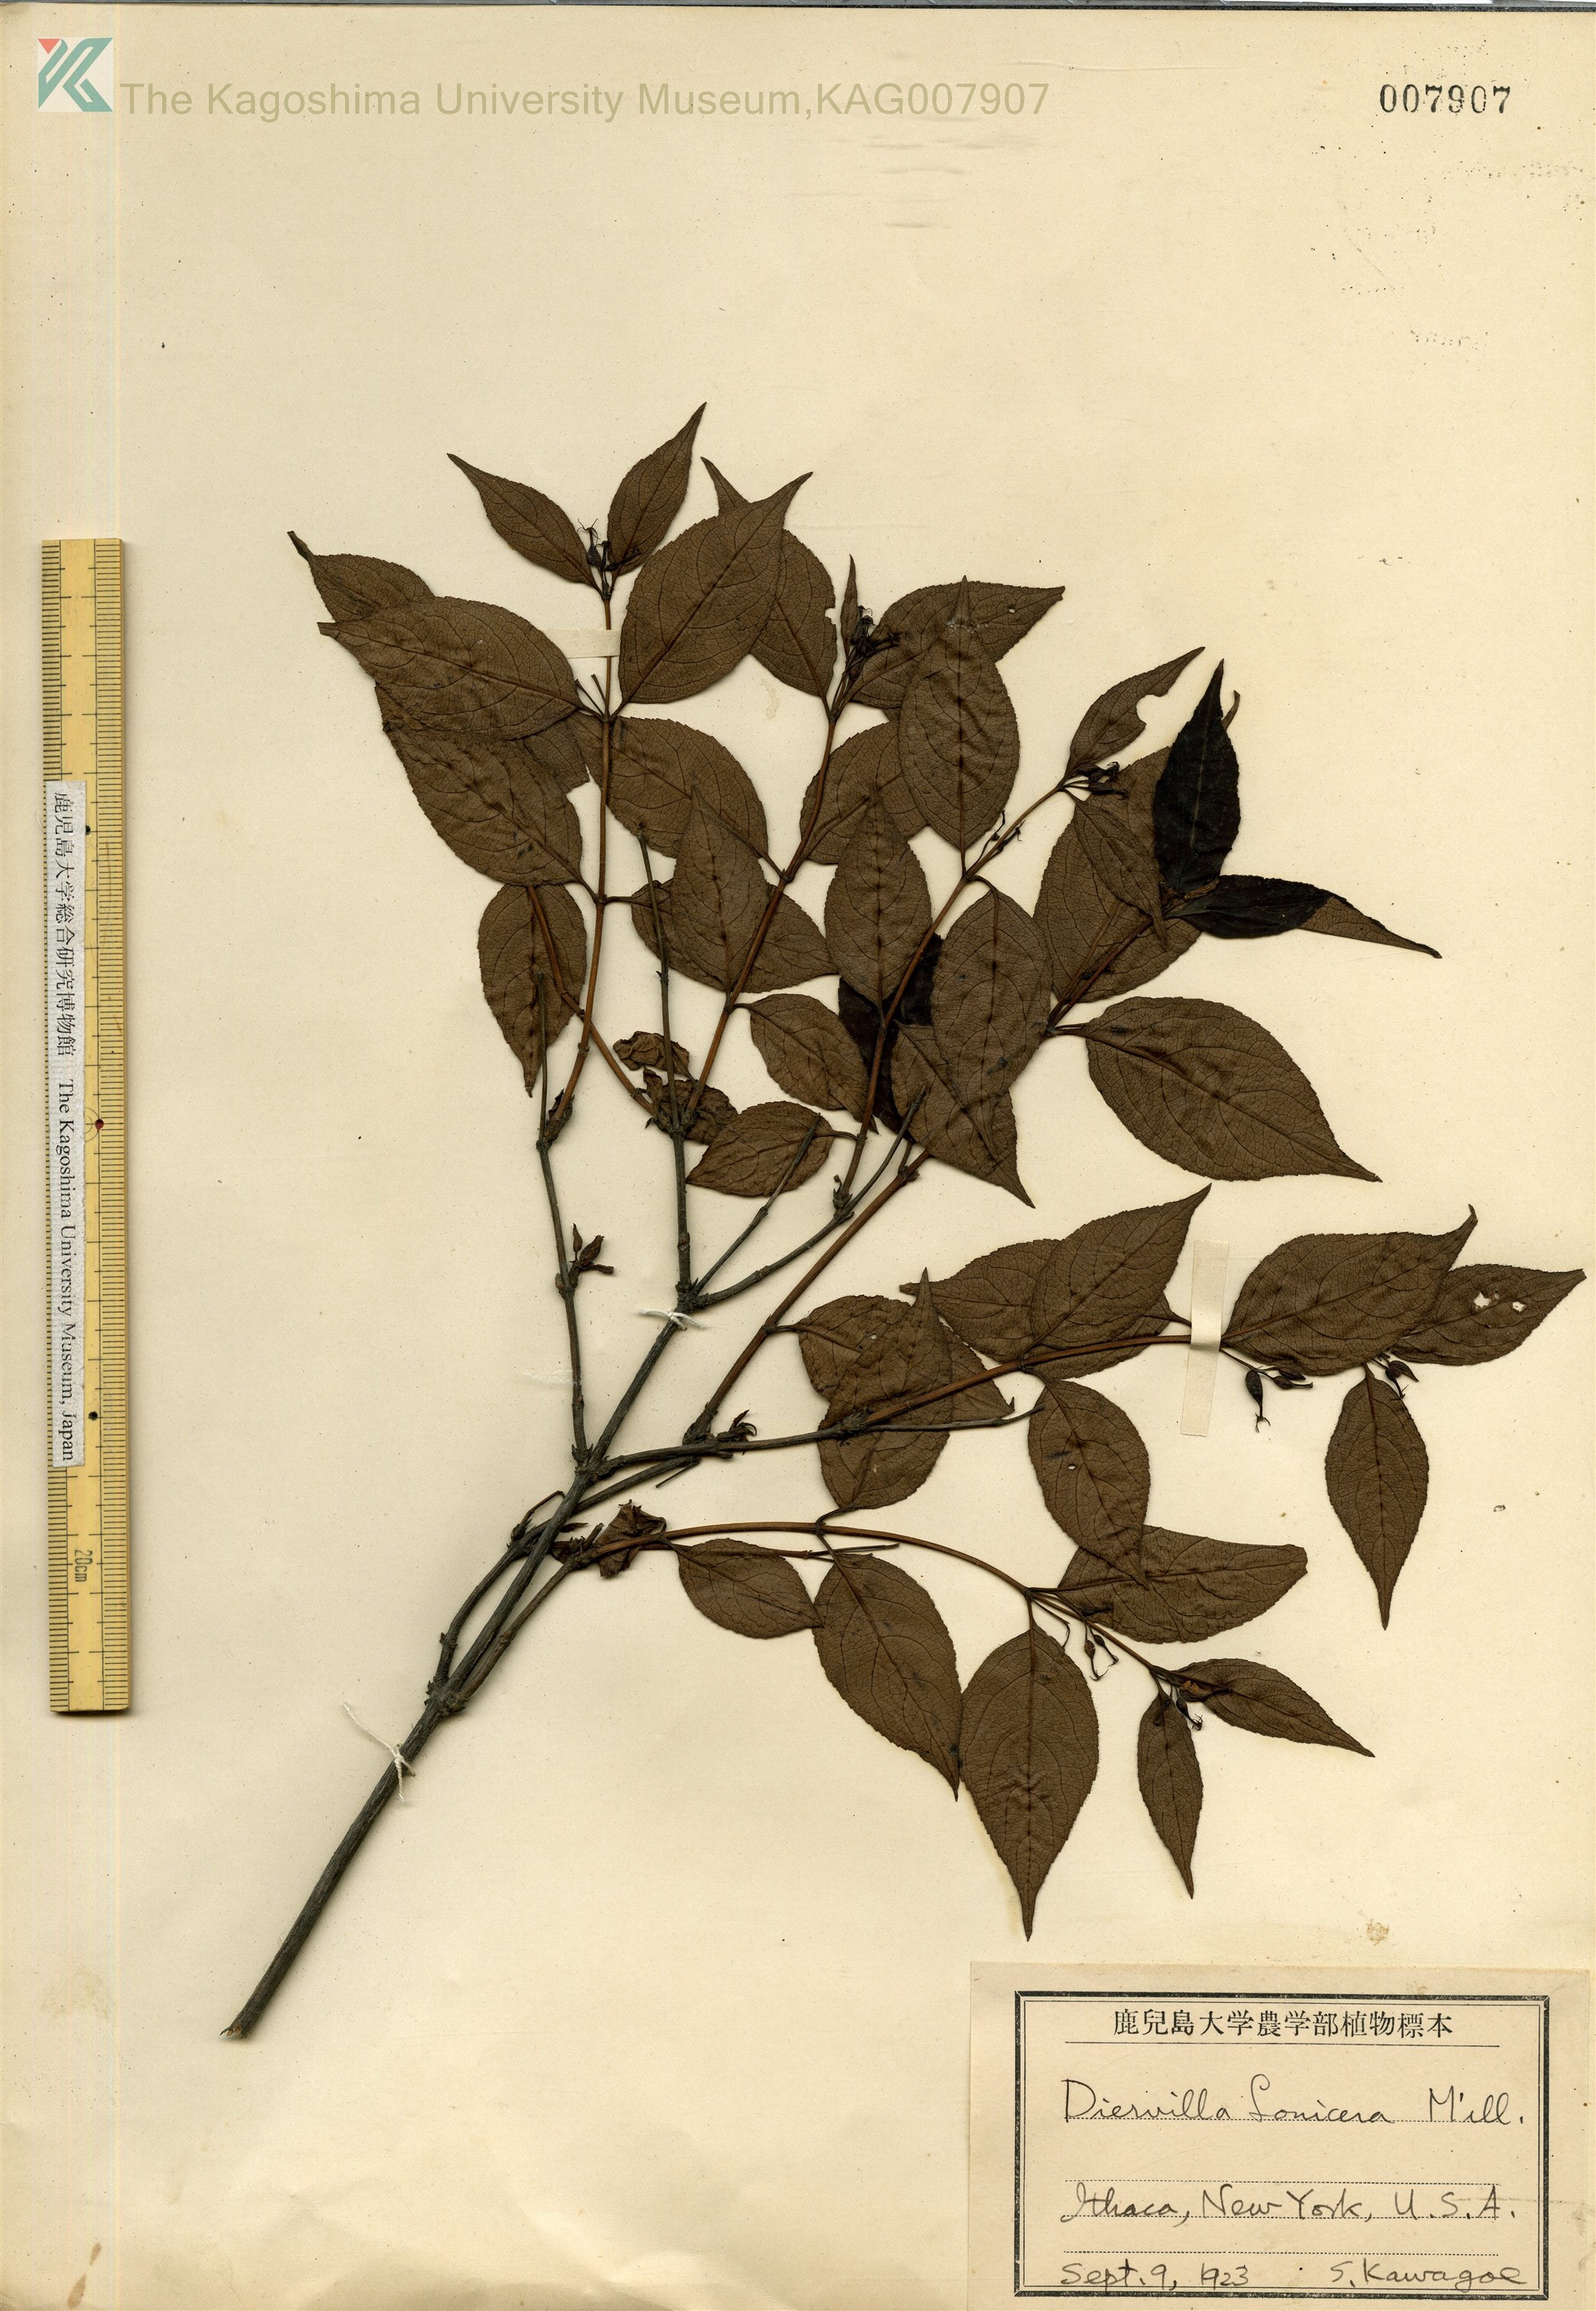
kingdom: Plantae
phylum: Tracheophyta
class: Magnoliopsida
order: Dipsacales
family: Caprifoliaceae
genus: Diervilla
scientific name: Diervilla
